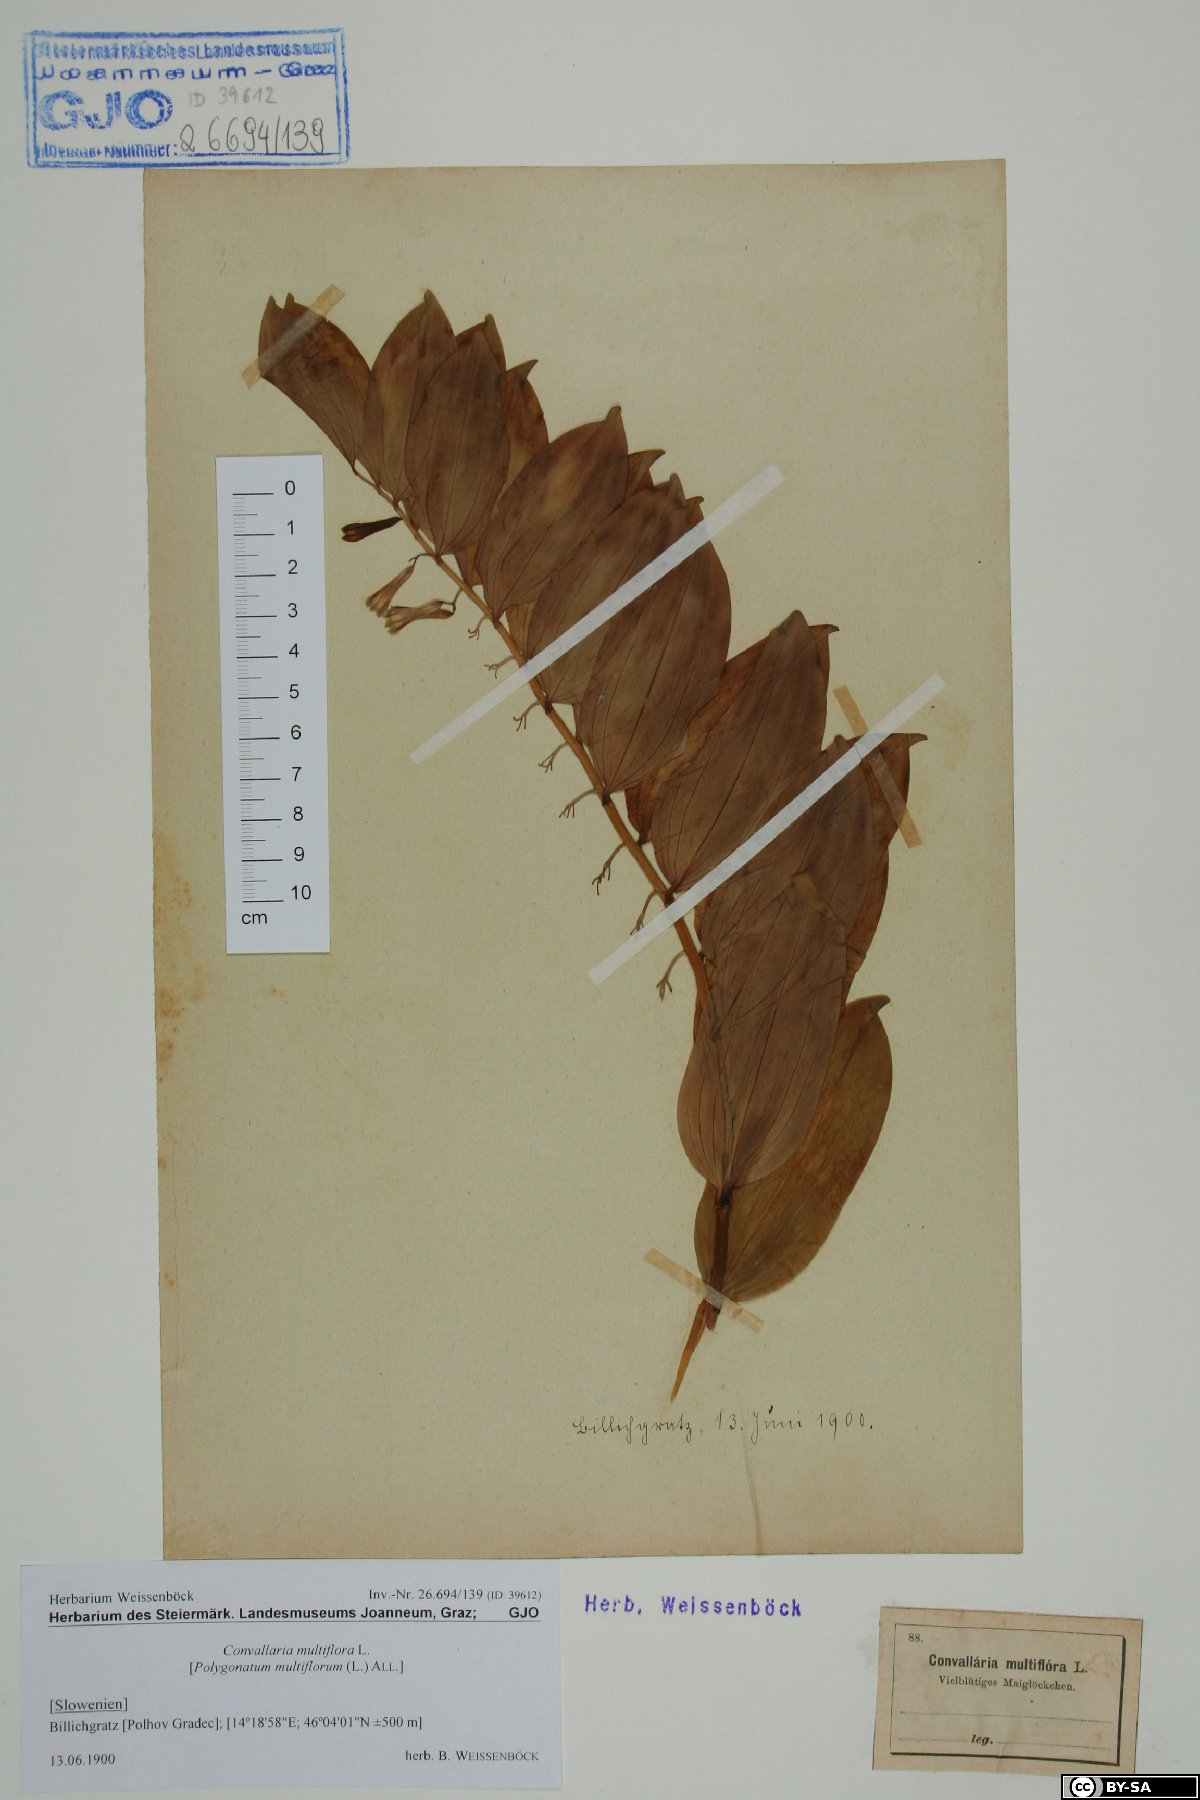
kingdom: Plantae
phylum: Tracheophyta
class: Liliopsida
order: Asparagales
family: Asparagaceae
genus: Polygonatum
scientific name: Polygonatum multiflorum
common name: Solomon's-seal
